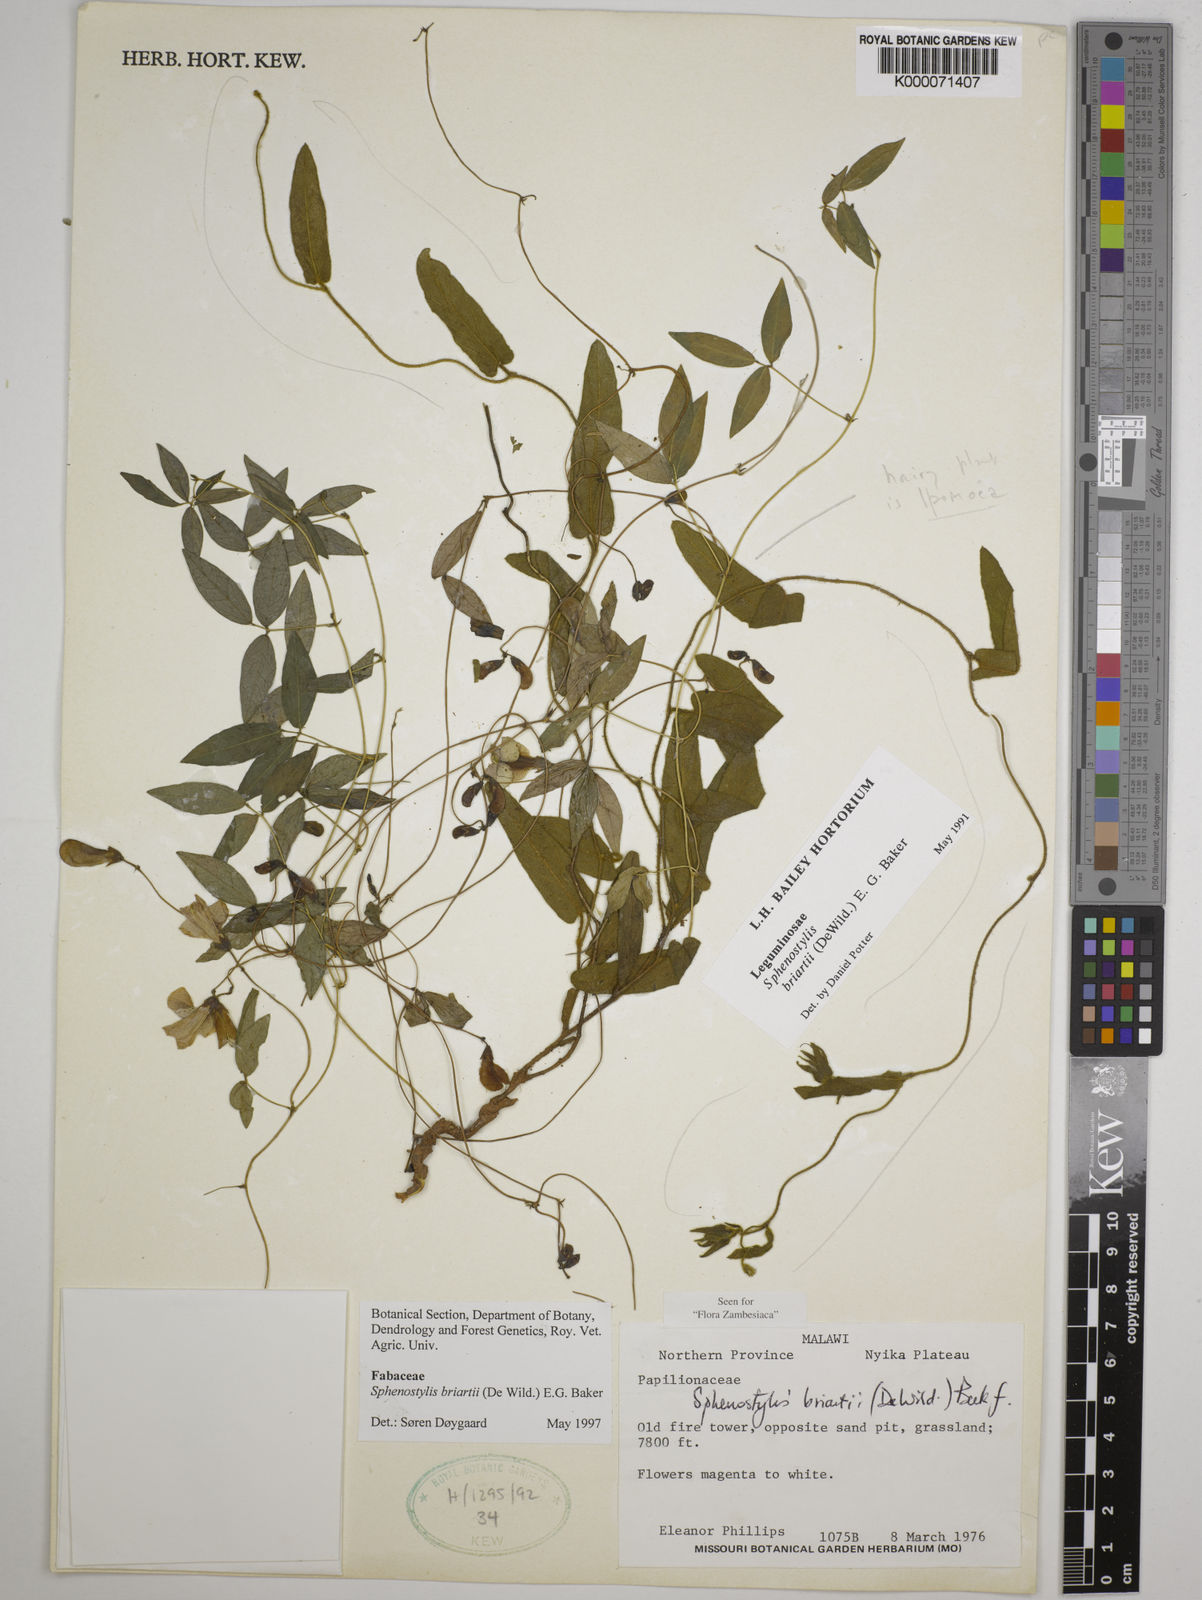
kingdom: Plantae
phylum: Tracheophyta
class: Magnoliopsida
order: Fabales
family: Fabaceae
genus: Sphenostylis
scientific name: Sphenostylis briartii
